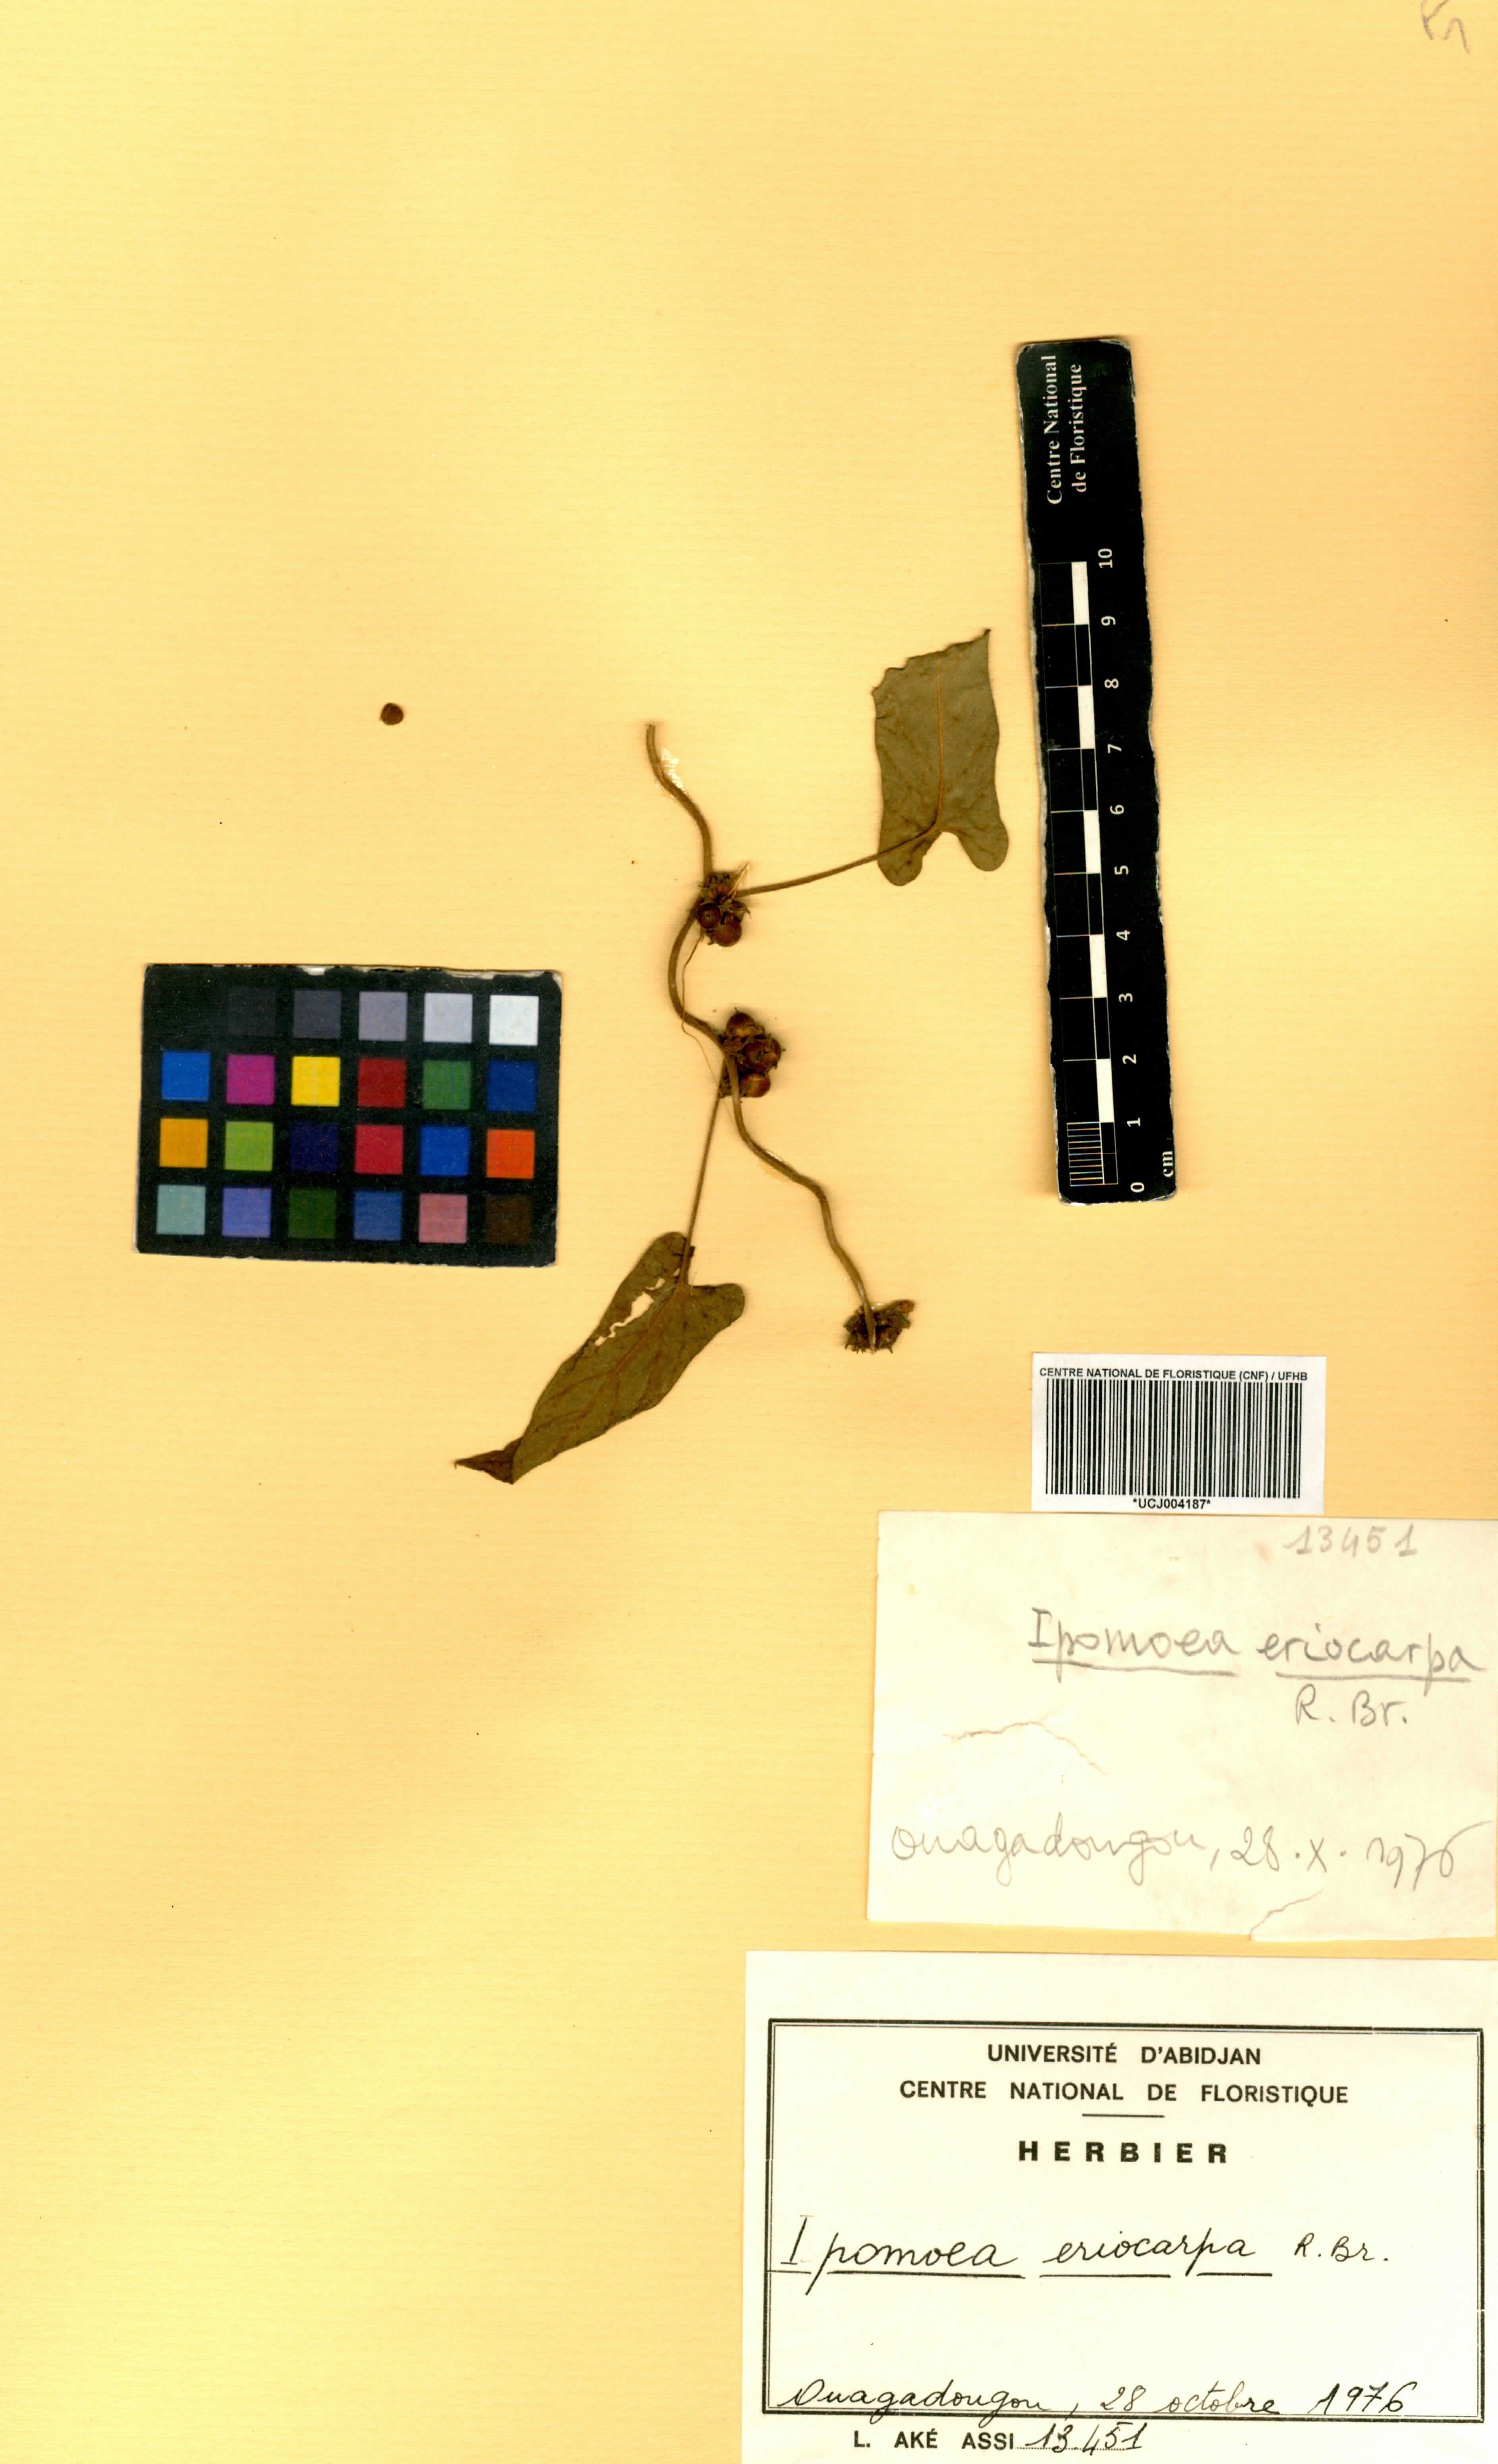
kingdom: Plantae
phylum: Tracheophyta
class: Magnoliopsida
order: Solanales
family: Convolvulaceae
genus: Ipomoea
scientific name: Ipomoea eriocarpa
